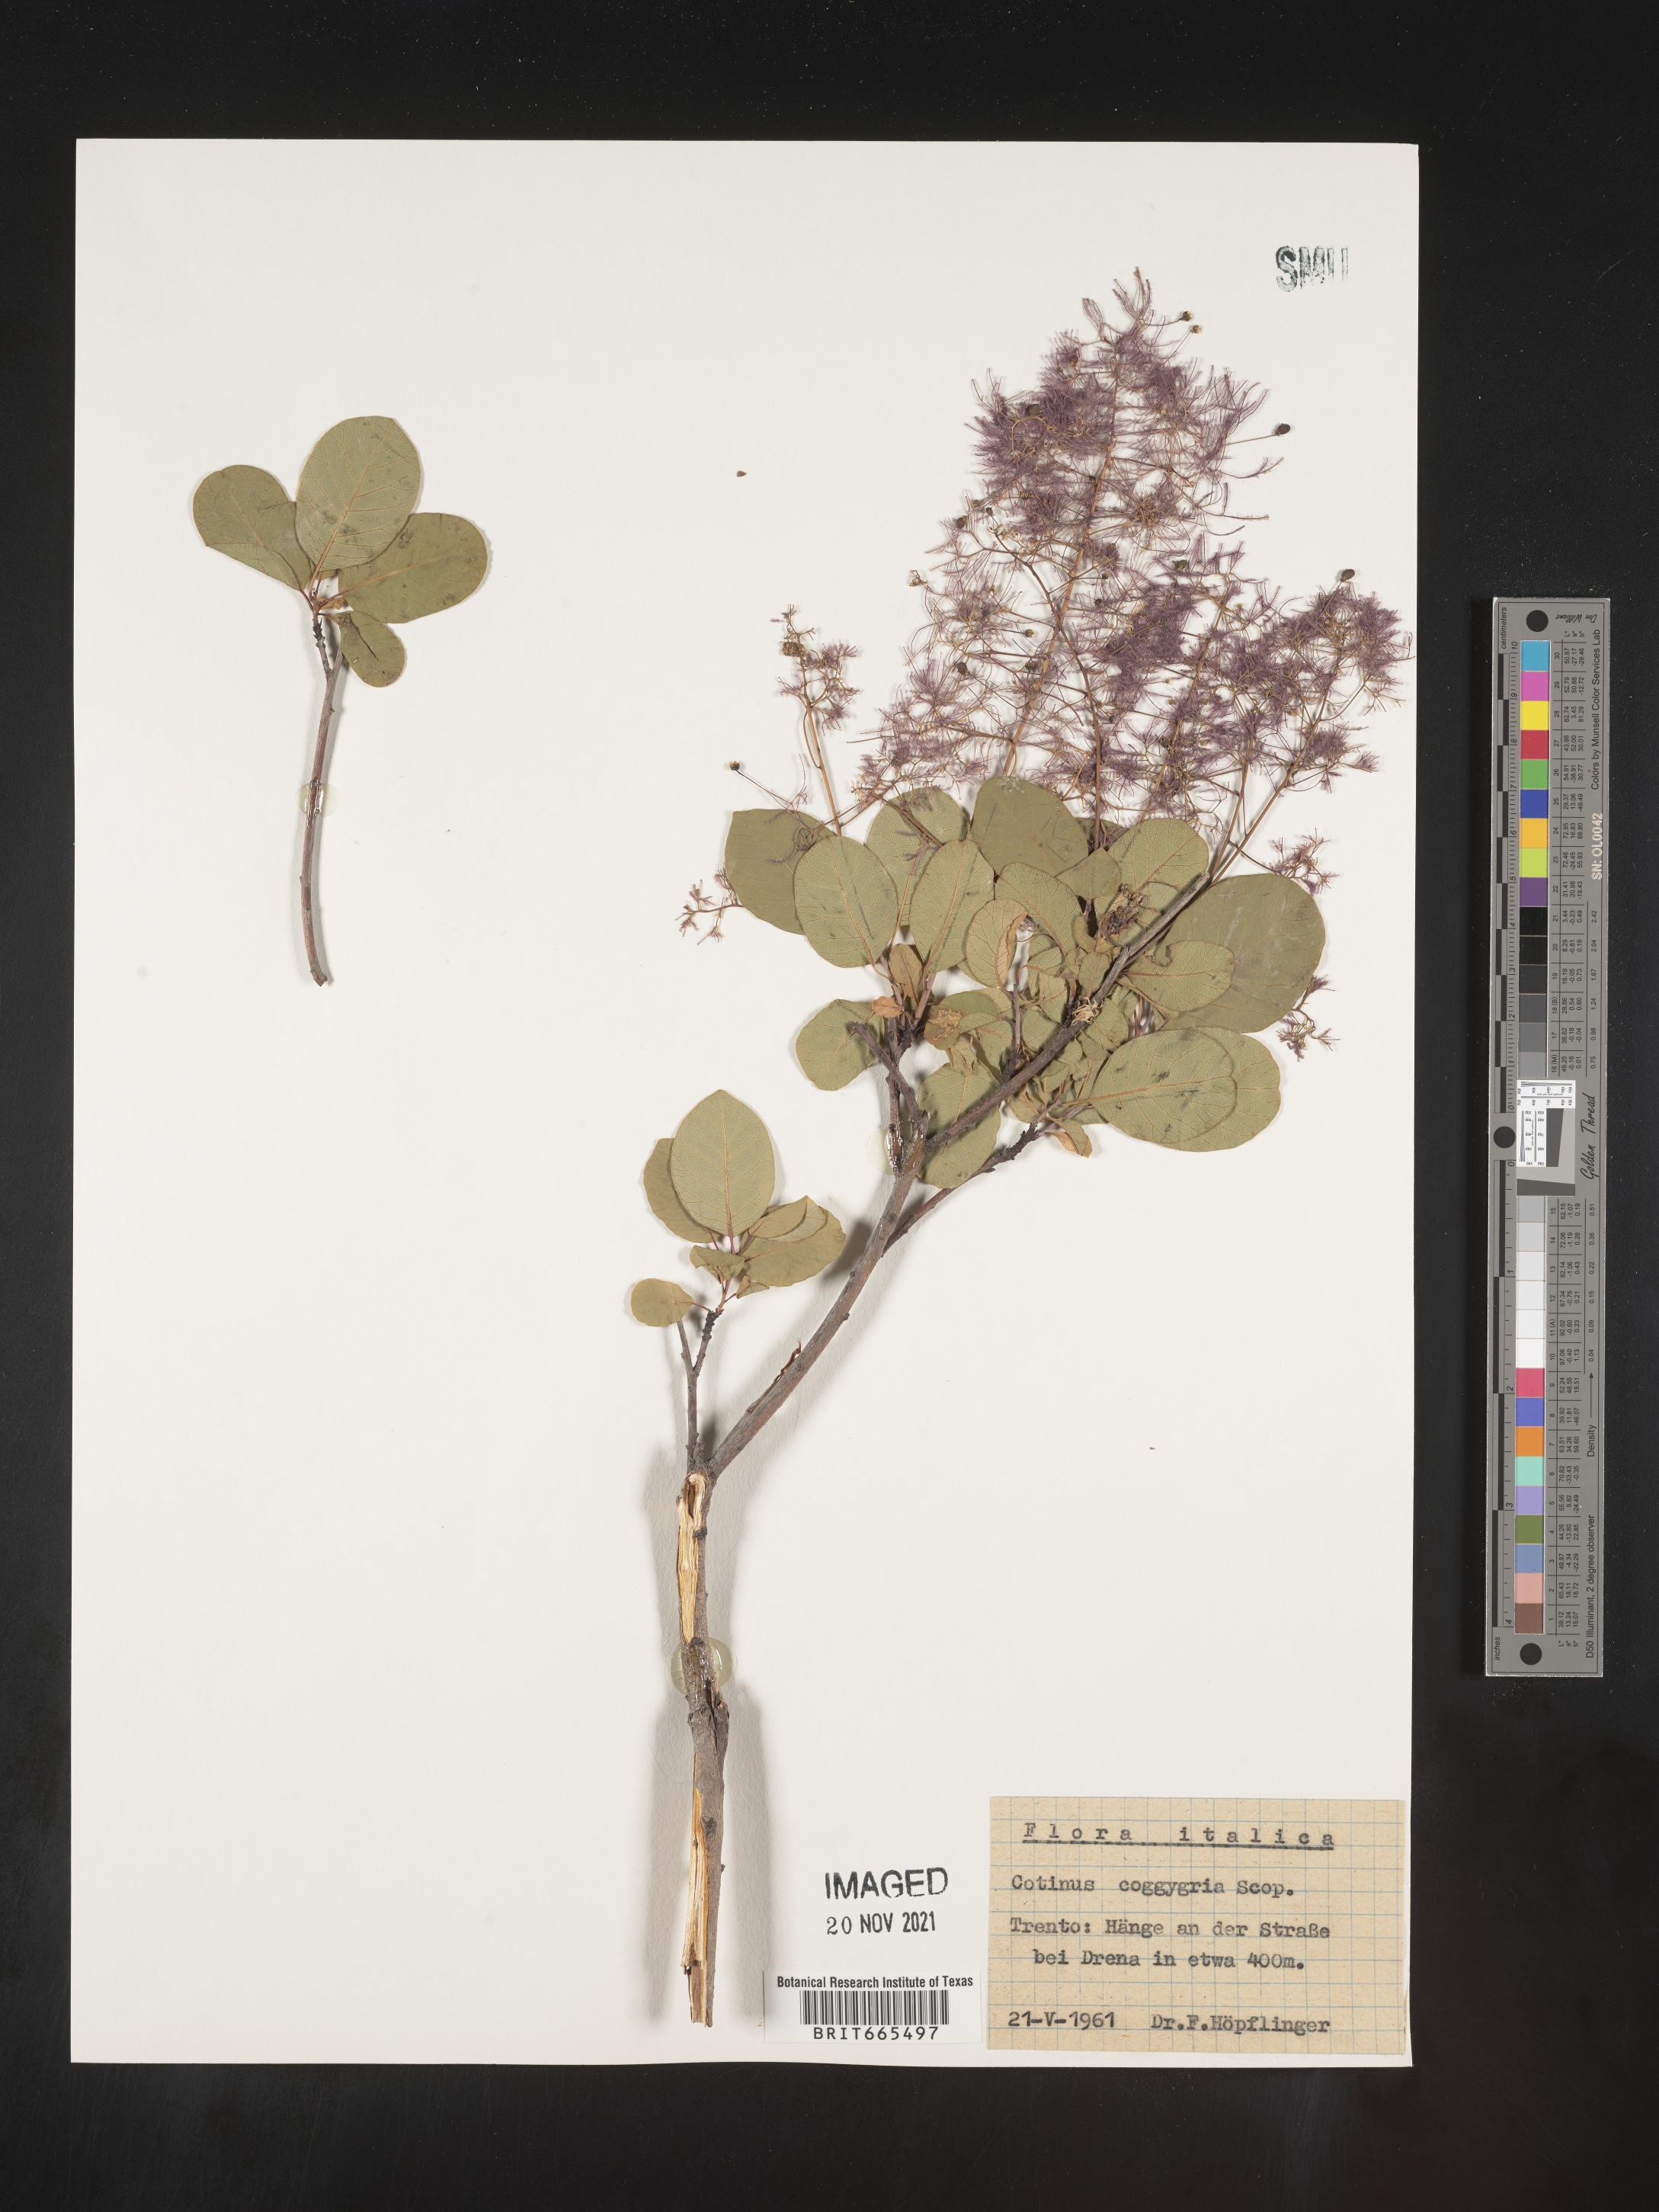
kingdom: Plantae
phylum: Tracheophyta
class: Magnoliopsida
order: Sapindales
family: Anacardiaceae
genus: Cotinus
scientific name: Cotinus
